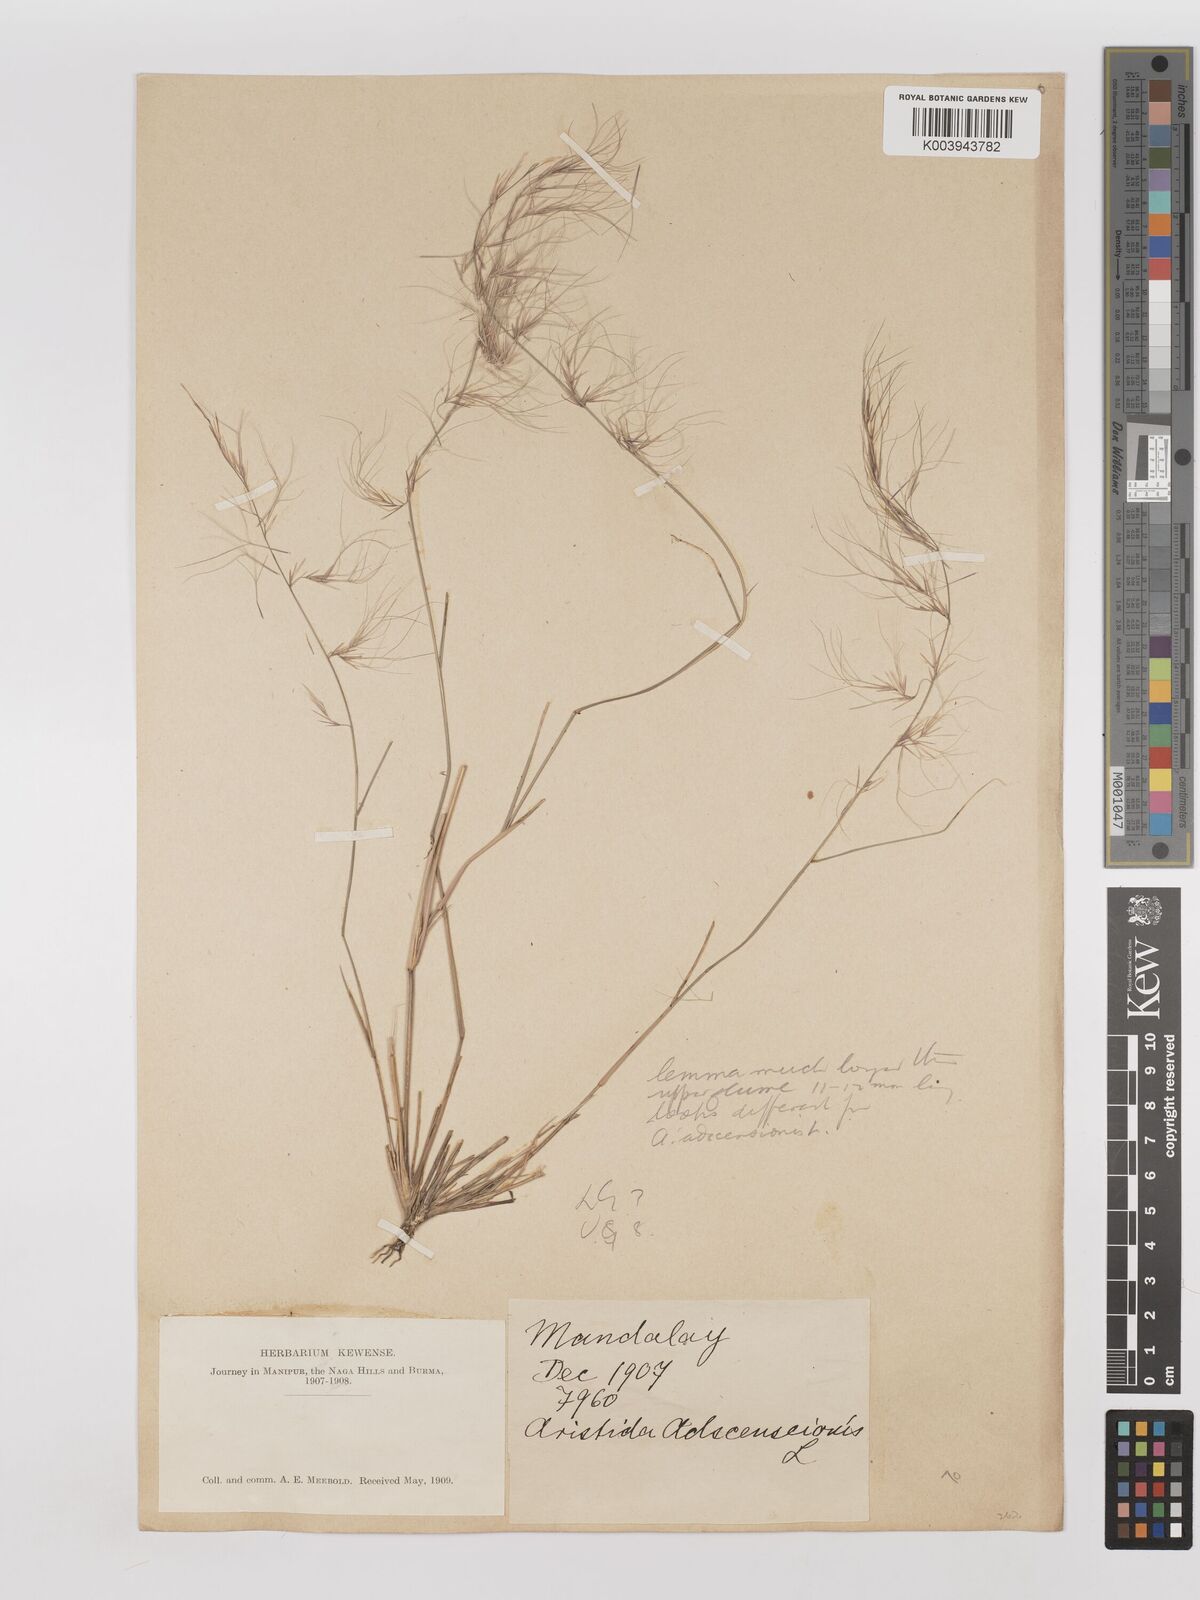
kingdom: Plantae
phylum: Tracheophyta
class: Liliopsida
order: Poales
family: Poaceae
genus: Aristida
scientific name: Aristida adscensionis
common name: Sixweeks threeawn
